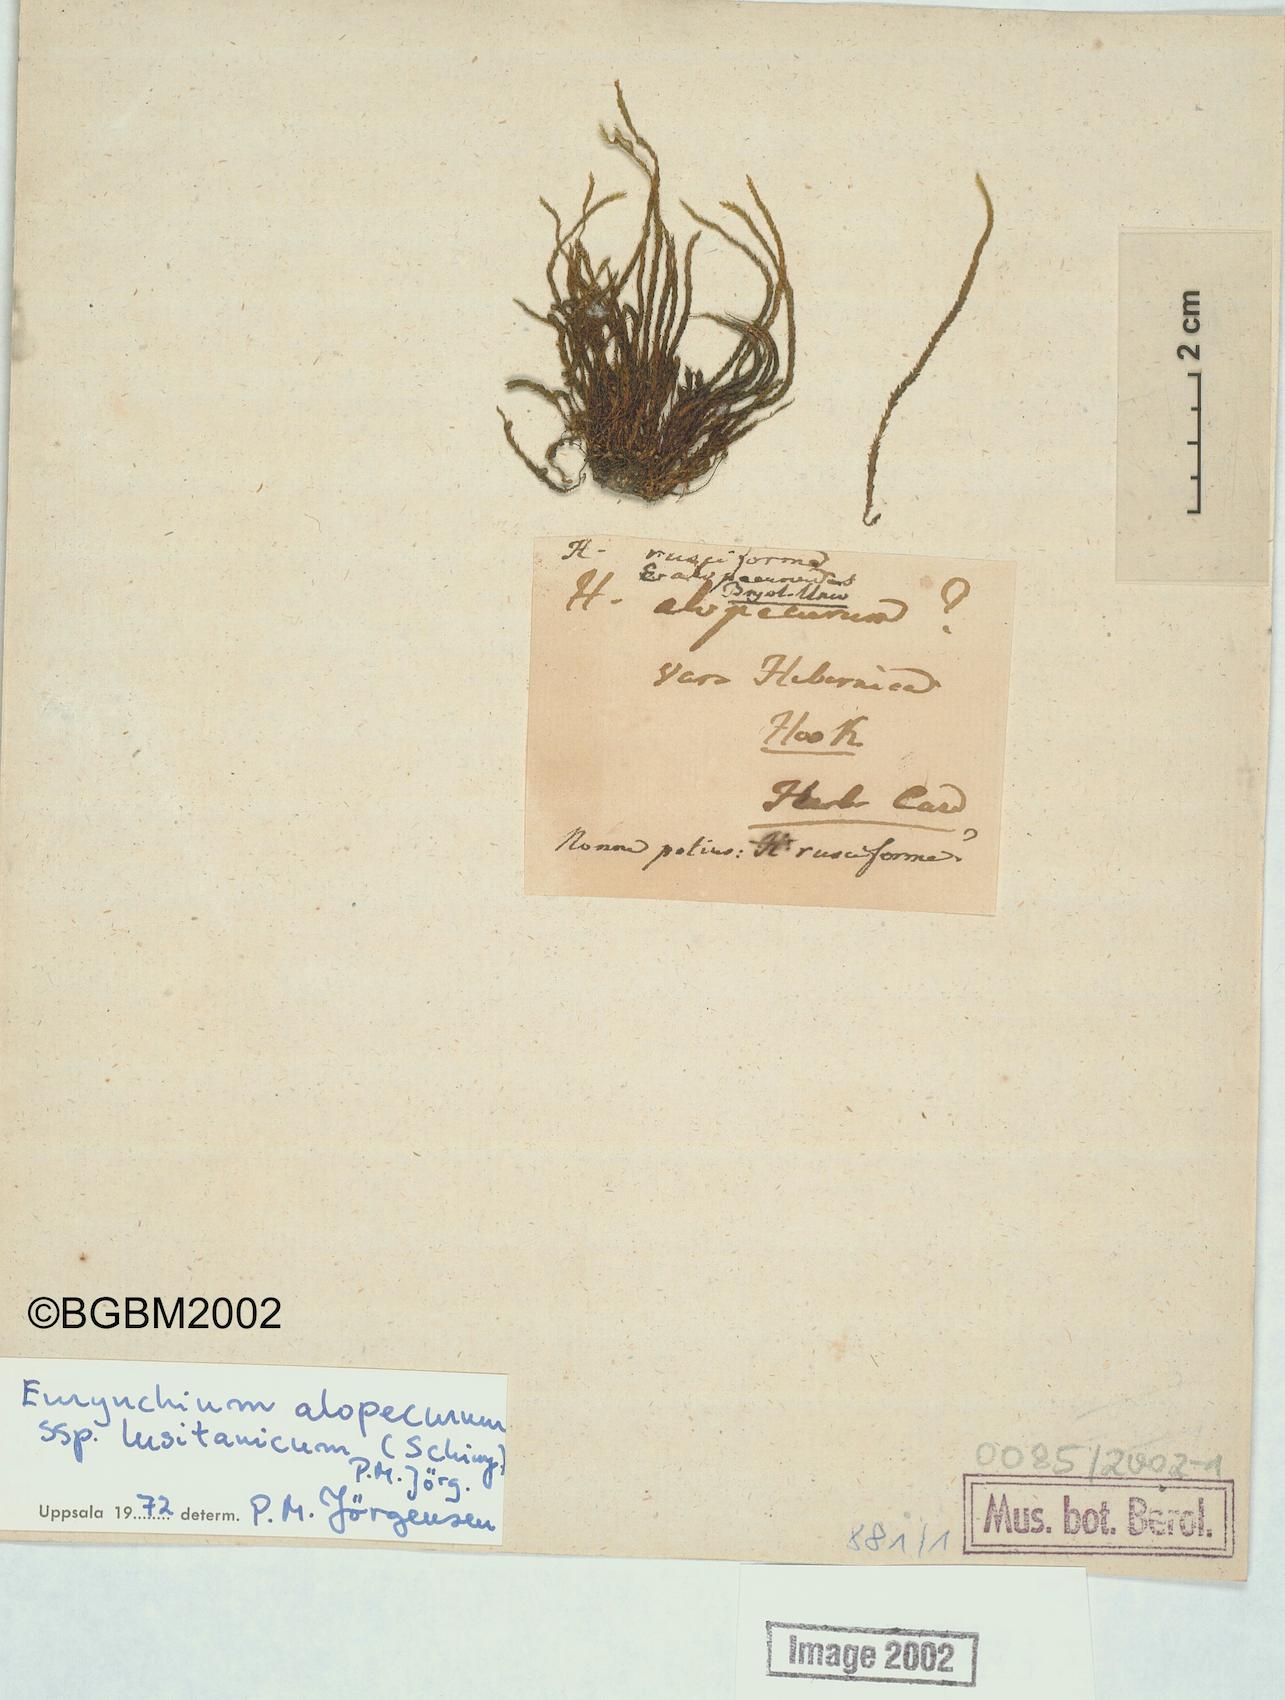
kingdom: Plantae
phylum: Bryophyta
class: Bryopsida
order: Hypnales
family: Brachytheciaceae
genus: Rhynchostegium
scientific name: Rhynchostegium alopecuroides
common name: Portuguese feather-moss
